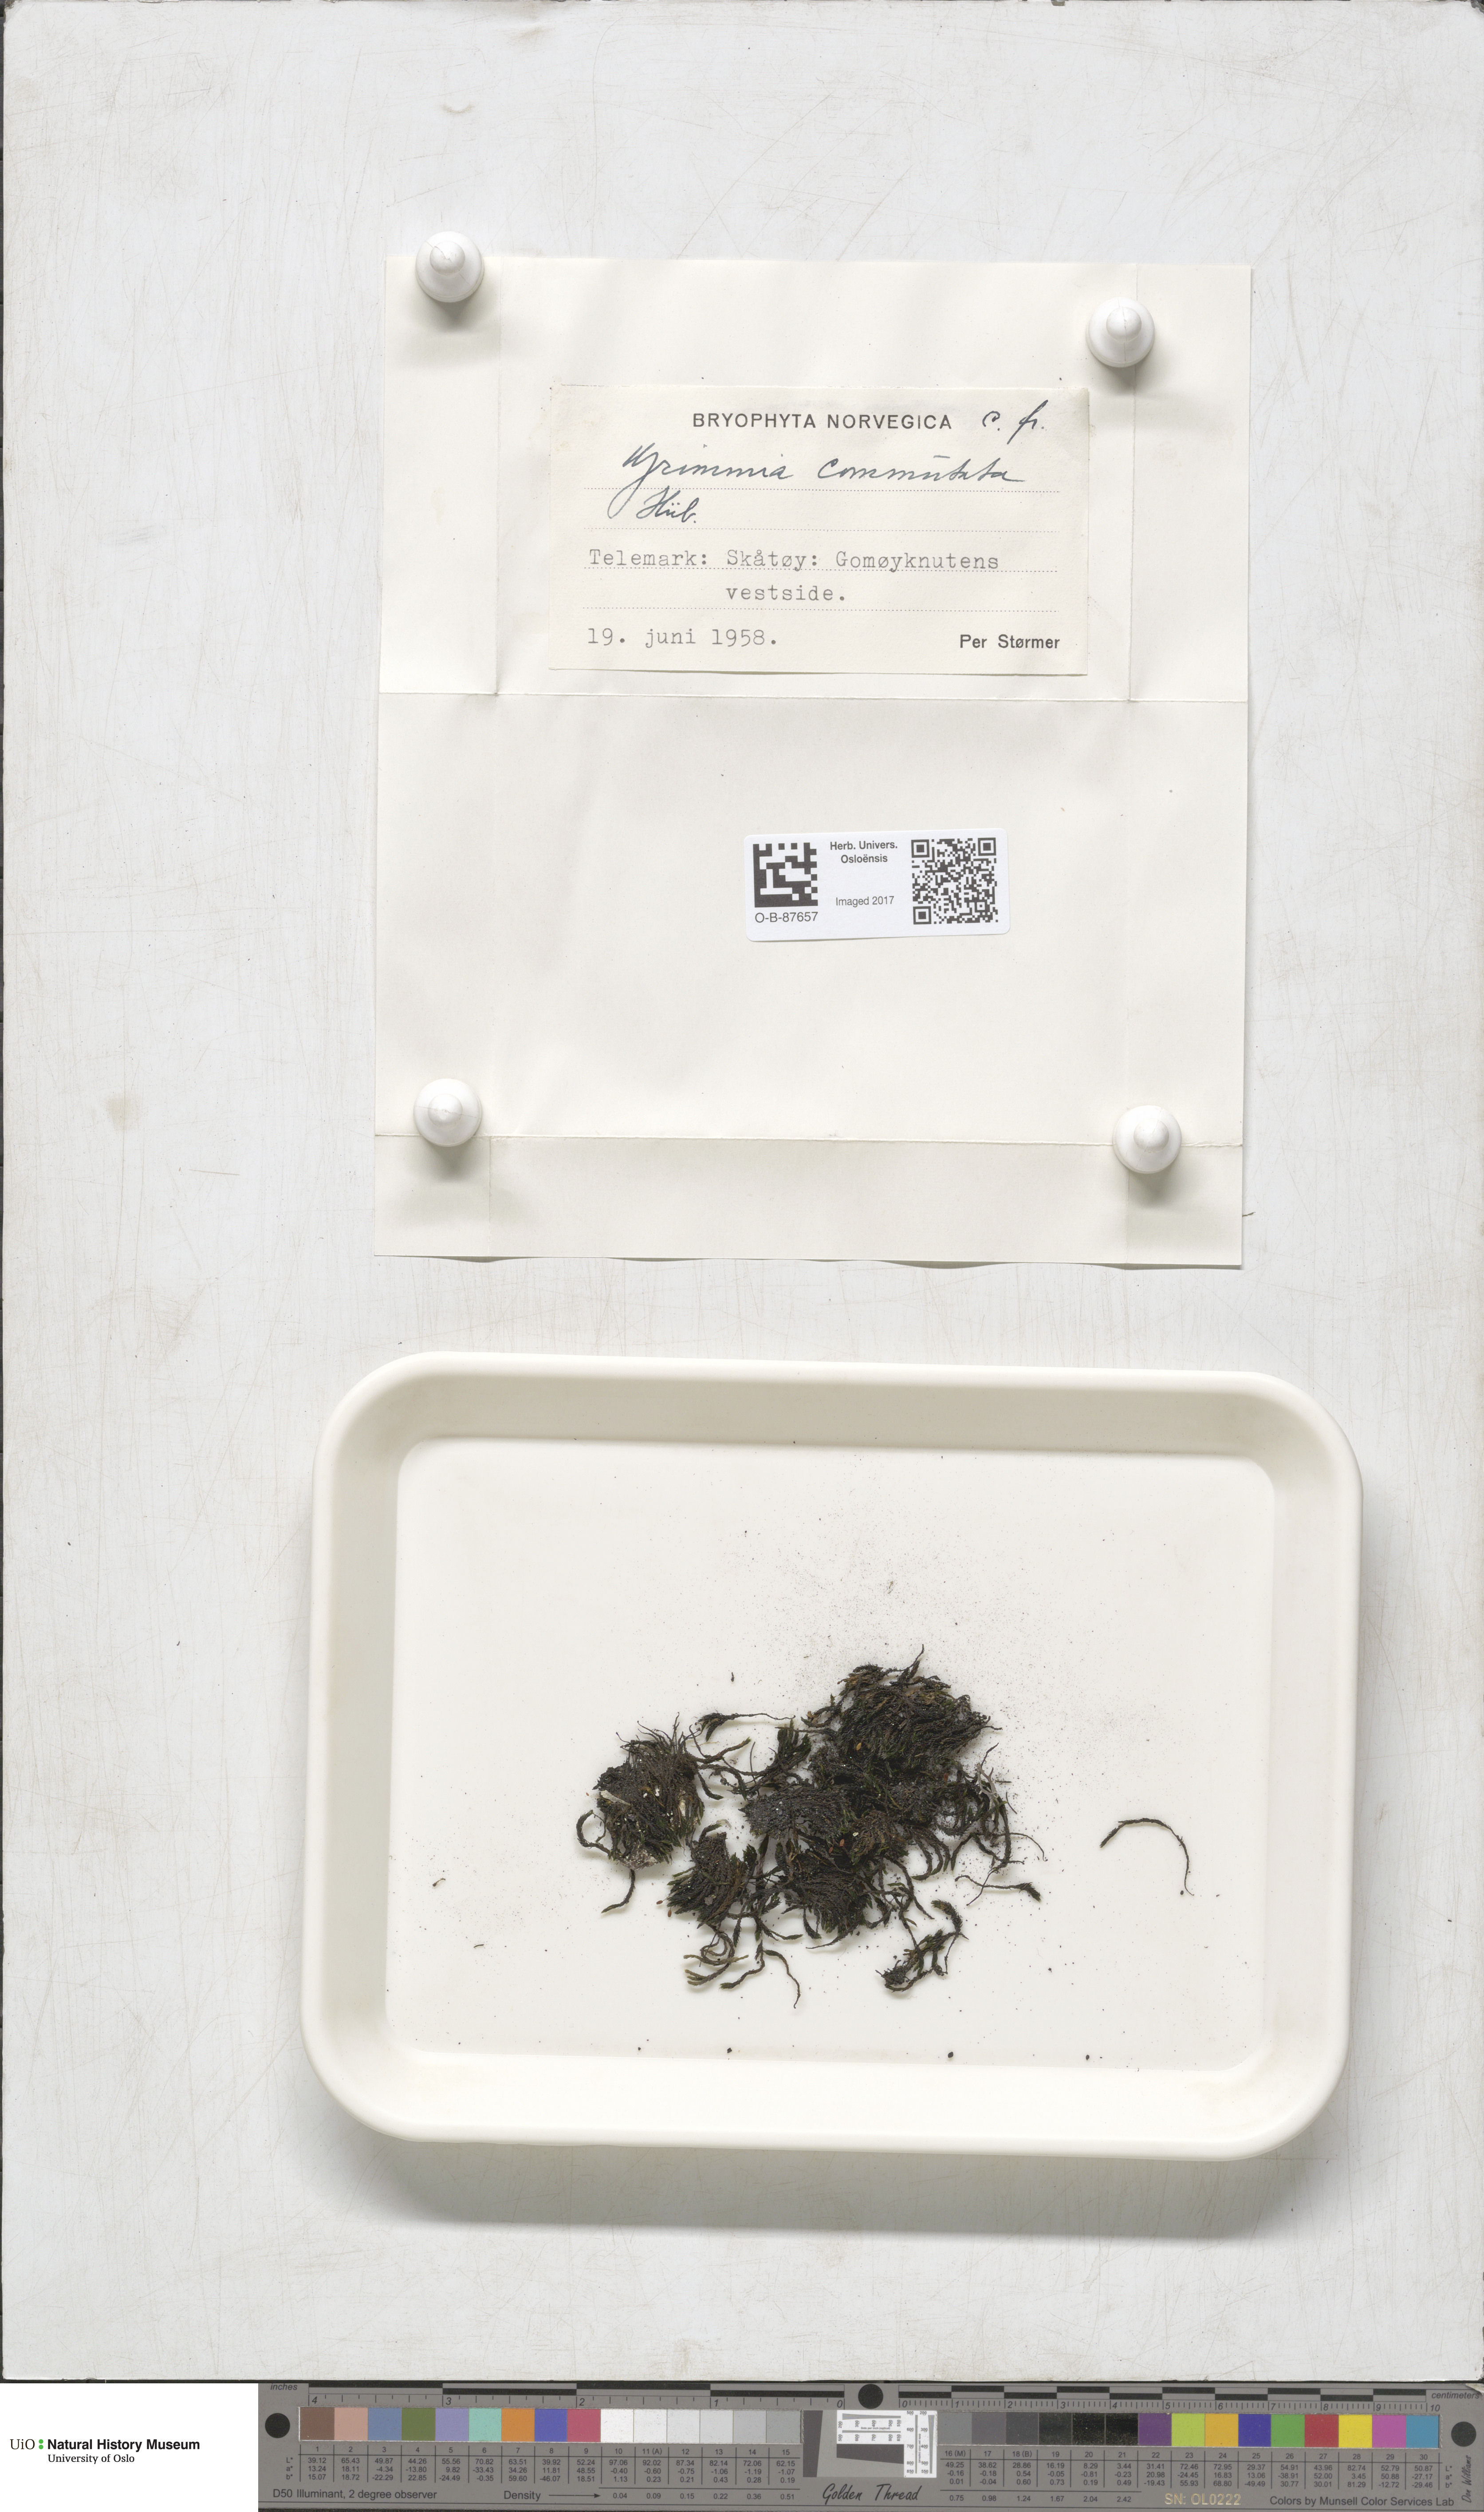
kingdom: Plantae
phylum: Bryophyta
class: Bryopsida
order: Grimmiales
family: Grimmiaceae
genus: Grimmia
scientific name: Grimmia ovalis
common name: Oval grimmia
